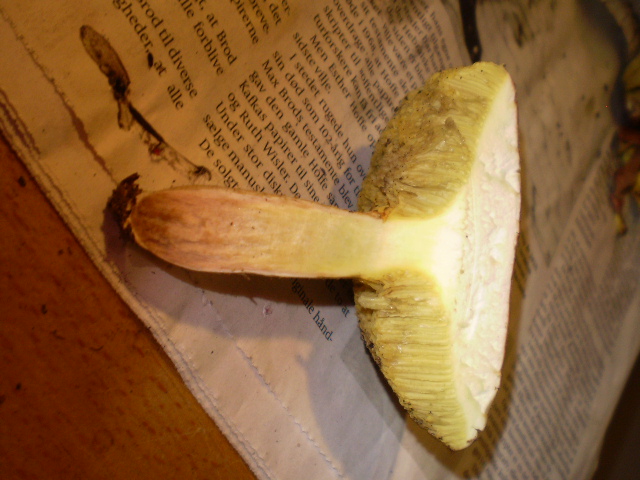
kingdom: Fungi
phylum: Basidiomycota
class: Agaricomycetes
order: Boletales
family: Boletaceae
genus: Xerocomus
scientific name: Xerocomus subtomentosus
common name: filtet rørhat
